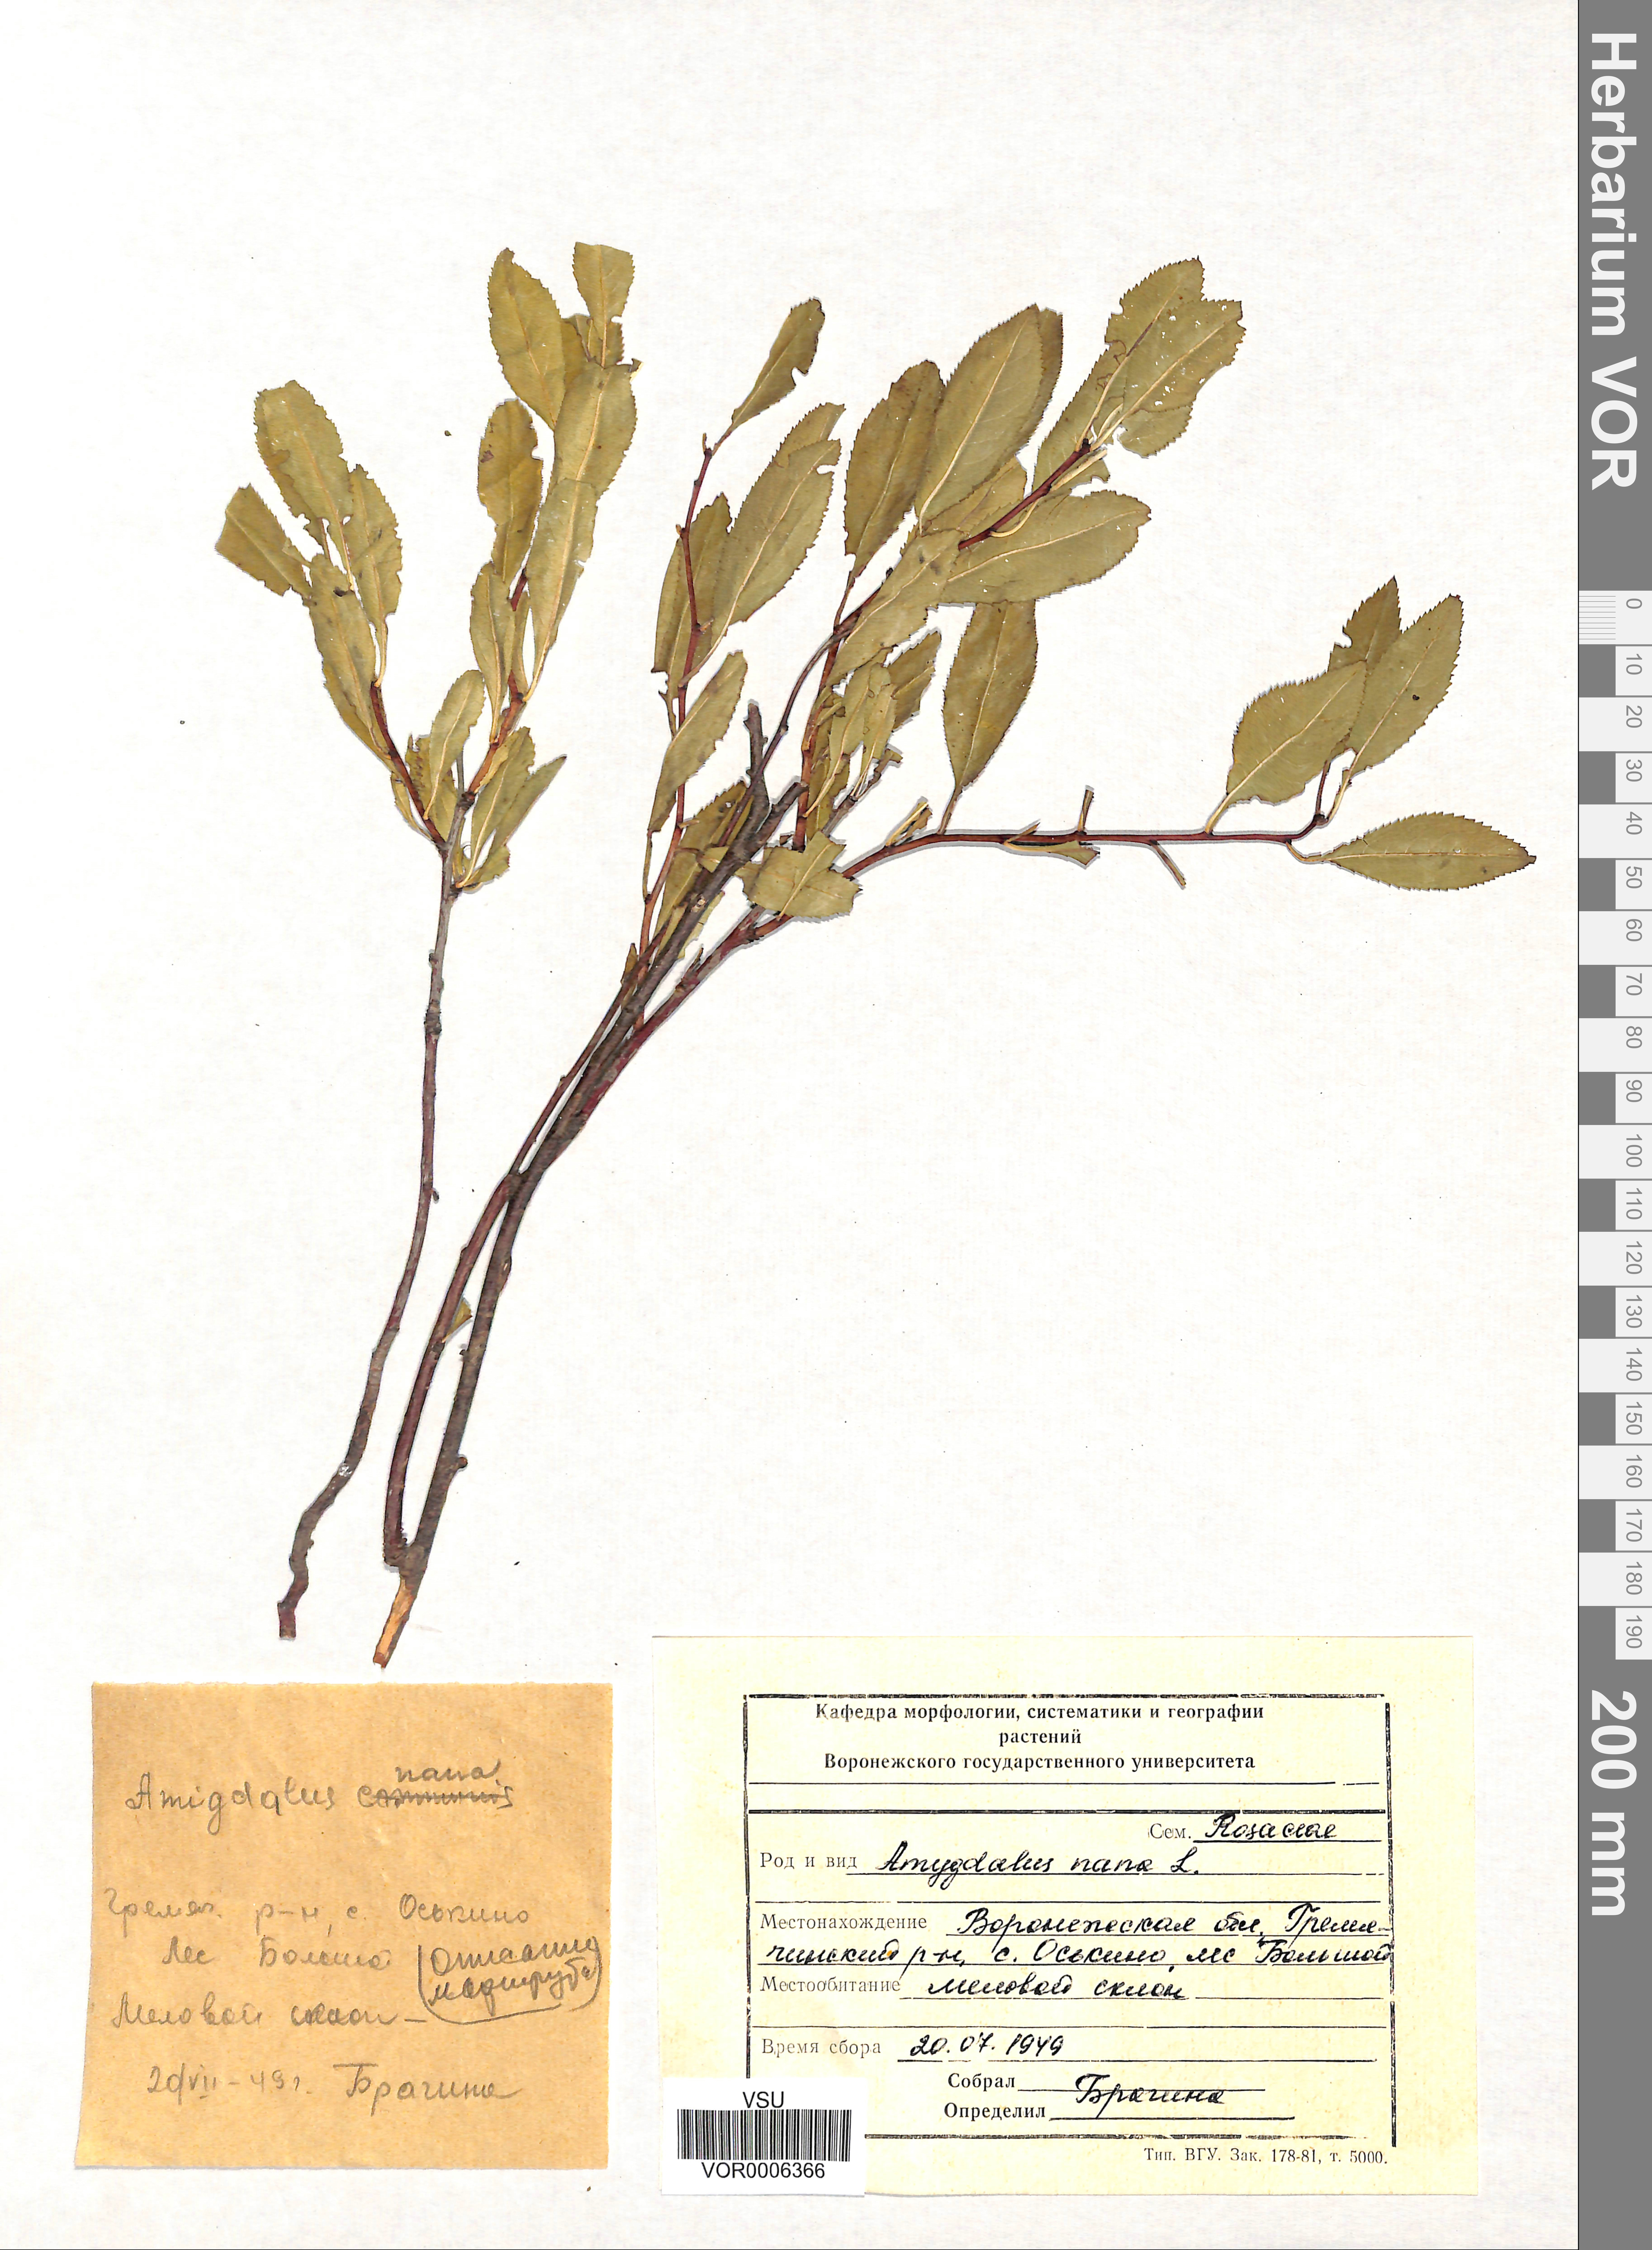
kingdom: Plantae
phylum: Tracheophyta
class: Magnoliopsida
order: Rosales
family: Rosaceae
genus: Prunus
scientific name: Prunus tenella
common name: Dwarf russian almond
